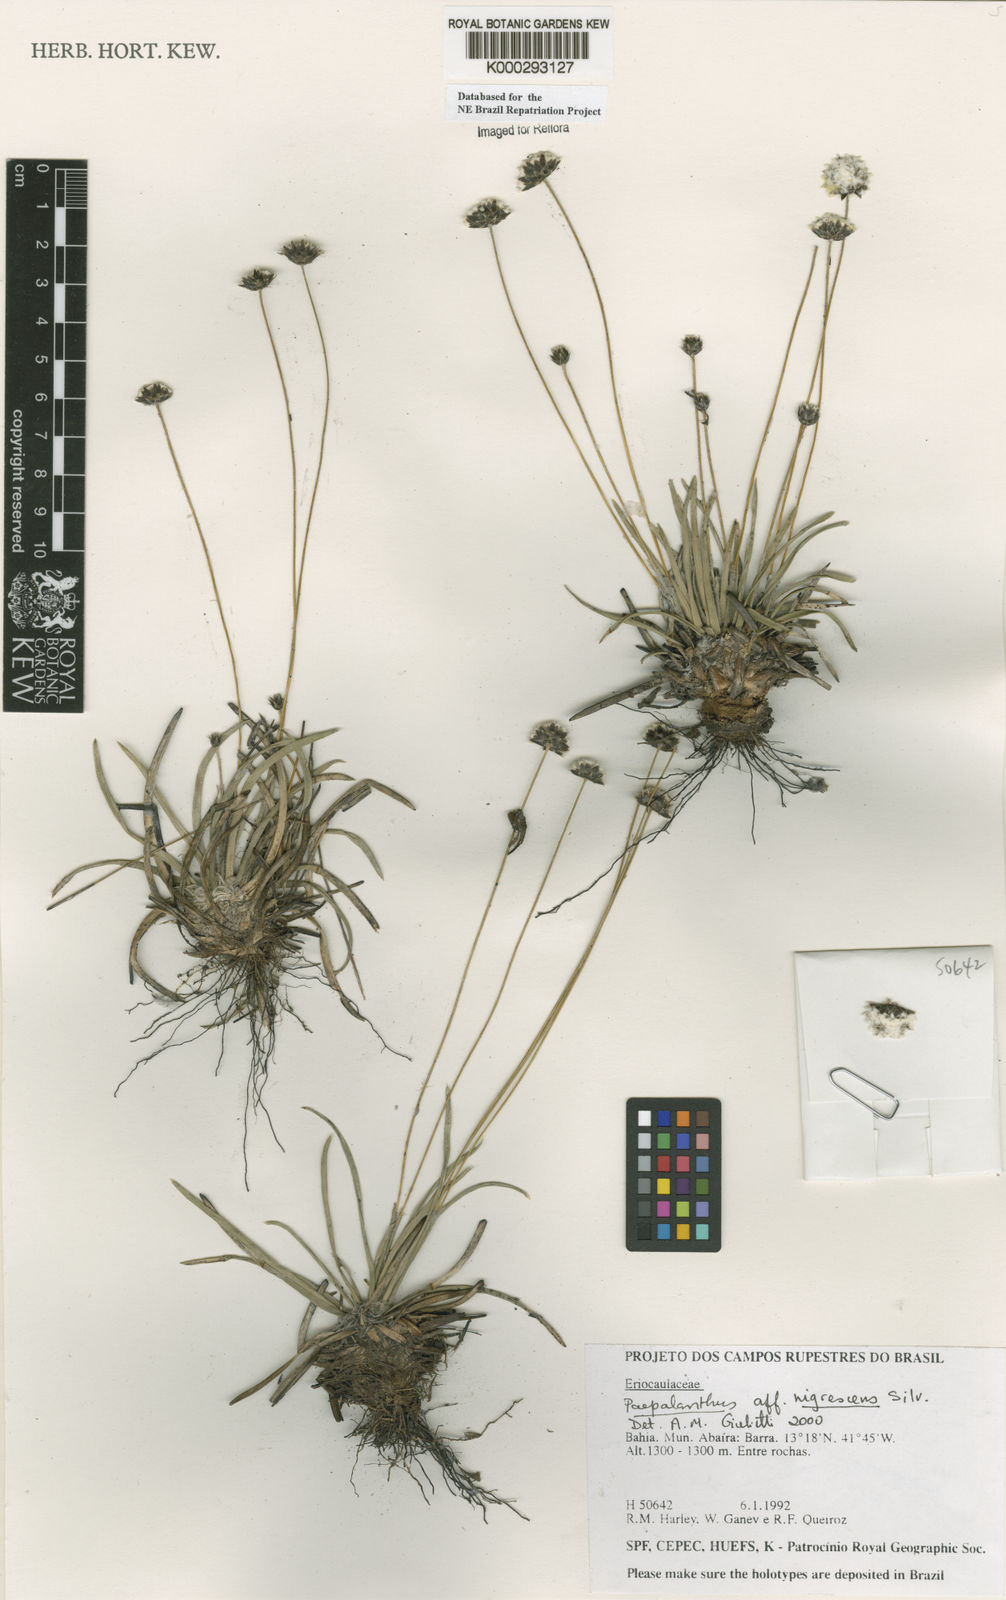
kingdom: Plantae
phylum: Tracheophyta
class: Liliopsida
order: Poales
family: Eriocaulaceae
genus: Paepalanthus
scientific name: Paepalanthus nigrescens
